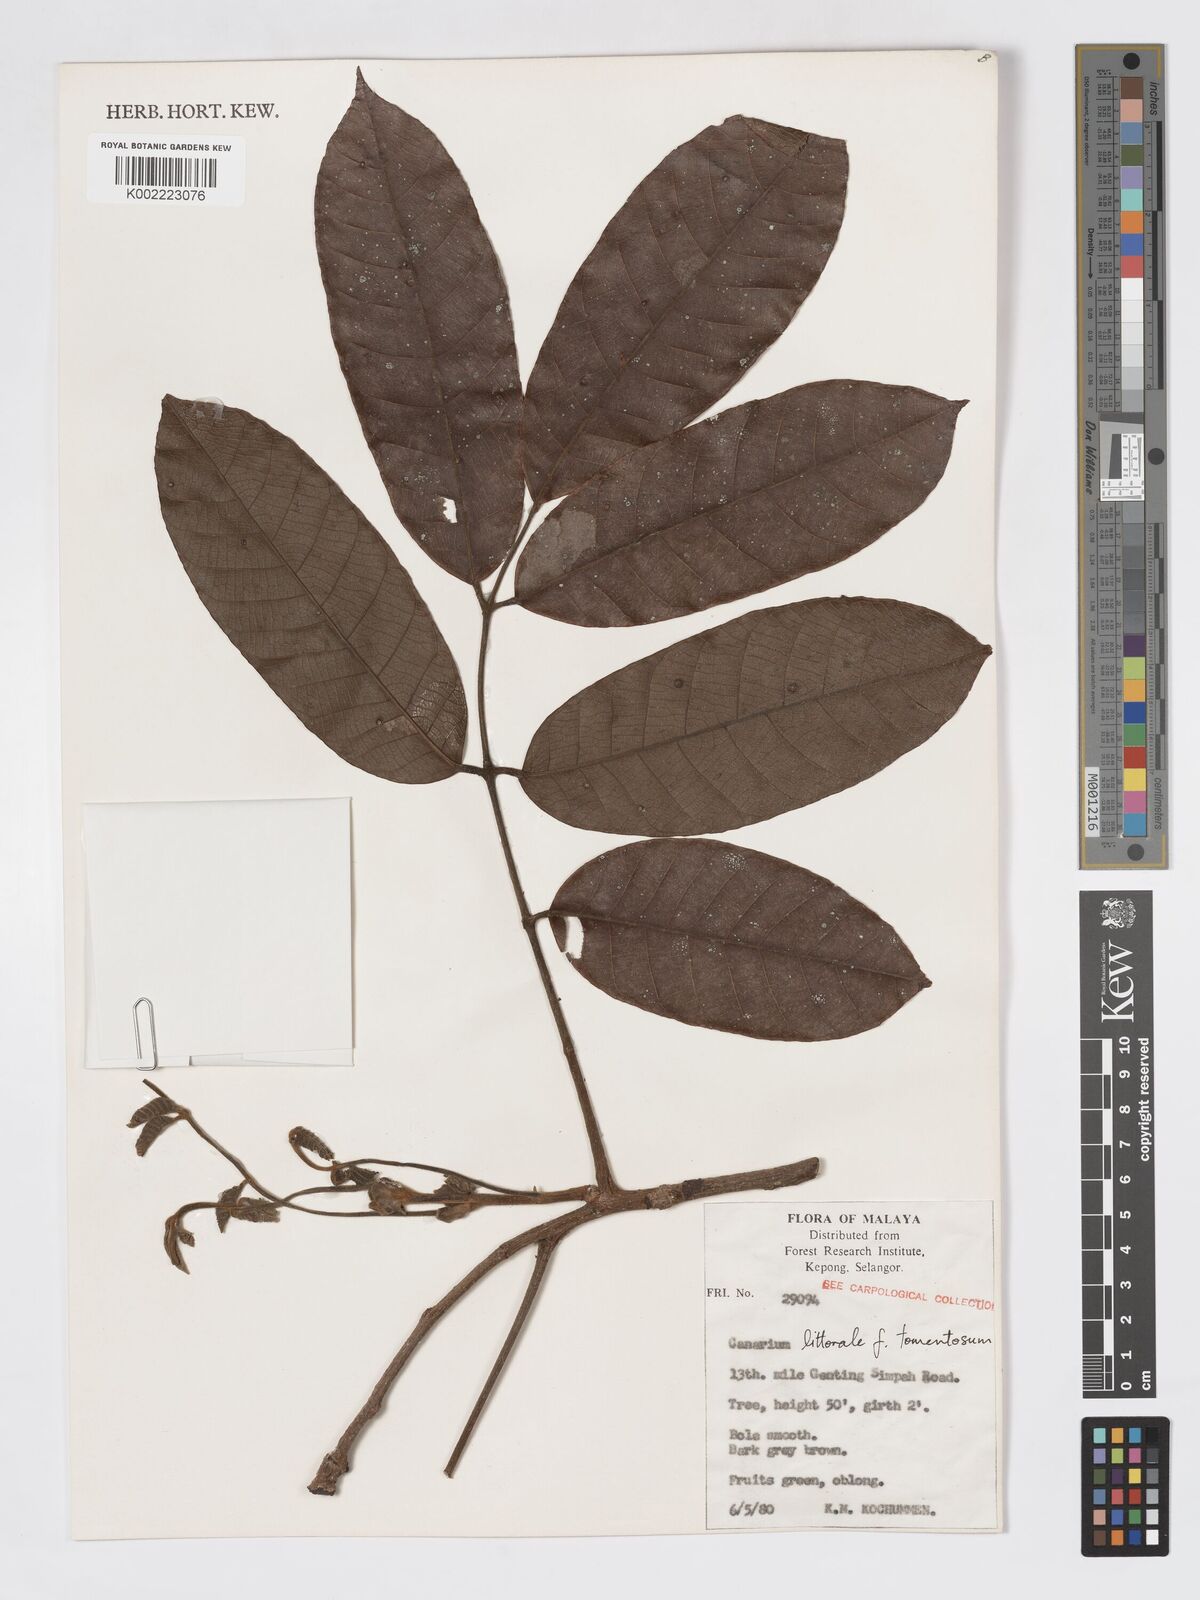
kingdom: Plantae
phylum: Tracheophyta
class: Magnoliopsida
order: Sapindales
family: Burseraceae
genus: Canarium
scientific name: Canarium littorale
